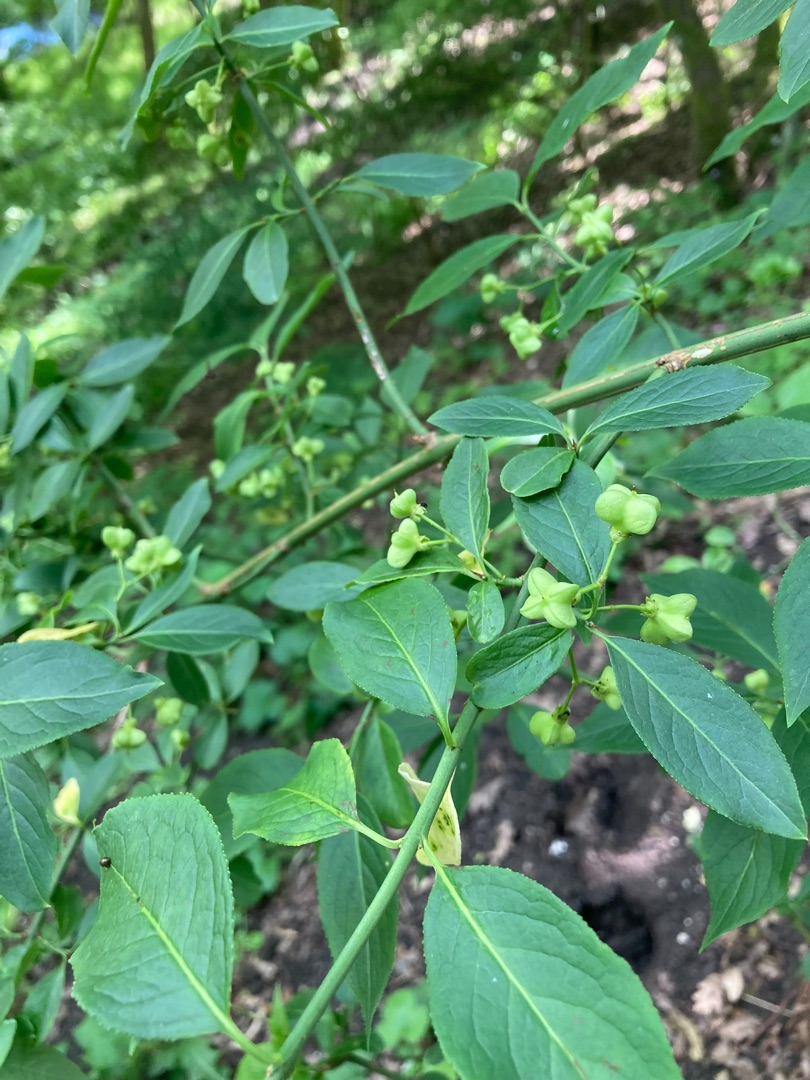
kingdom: Plantae
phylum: Tracheophyta
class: Magnoliopsida
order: Celastrales
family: Celastraceae
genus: Euonymus
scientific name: Euonymus europaeus
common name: Benved
